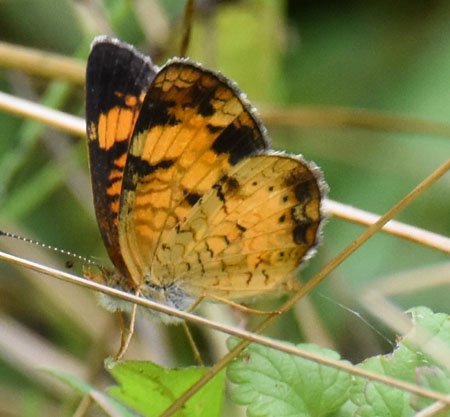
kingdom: Animalia
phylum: Arthropoda
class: Insecta
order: Lepidoptera
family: Nymphalidae
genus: Phyciodes
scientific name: Phyciodes tharos
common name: Pearl Crescent
